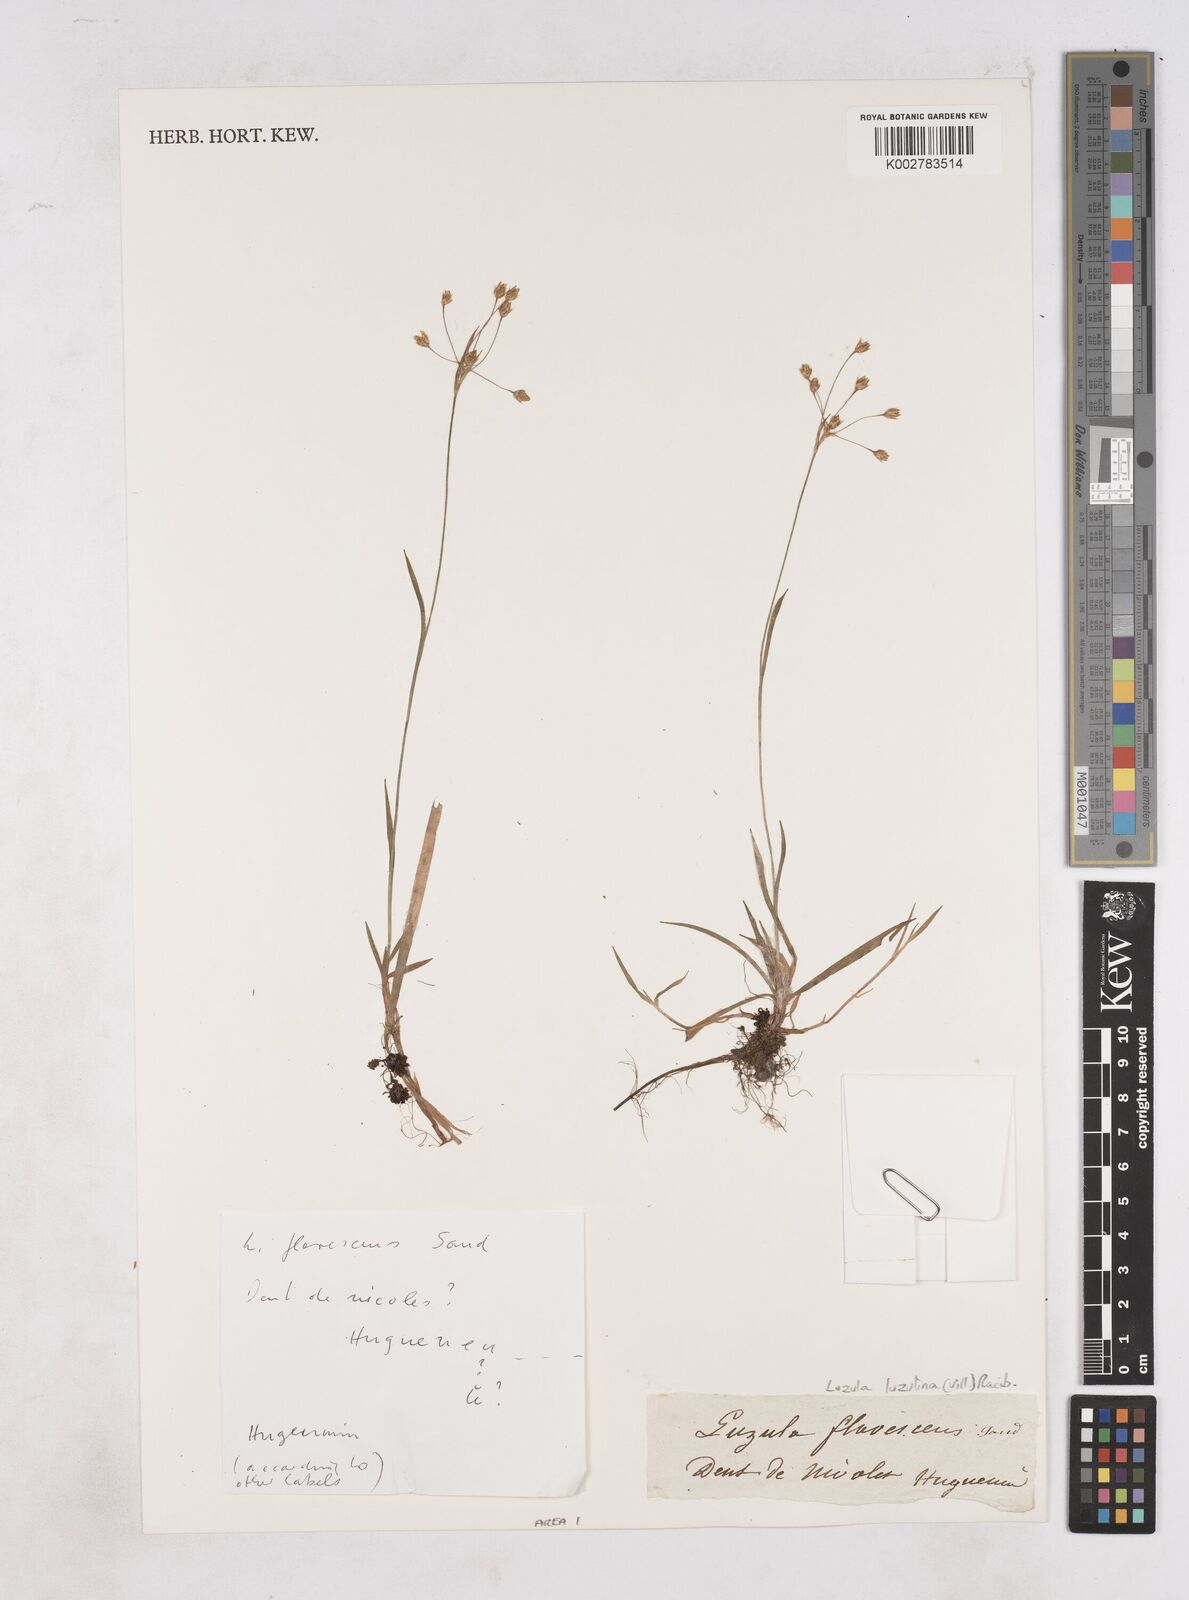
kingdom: Plantae
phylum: Tracheophyta
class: Liliopsida
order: Poales
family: Juncaceae
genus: Luzula
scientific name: Luzula luzulina
